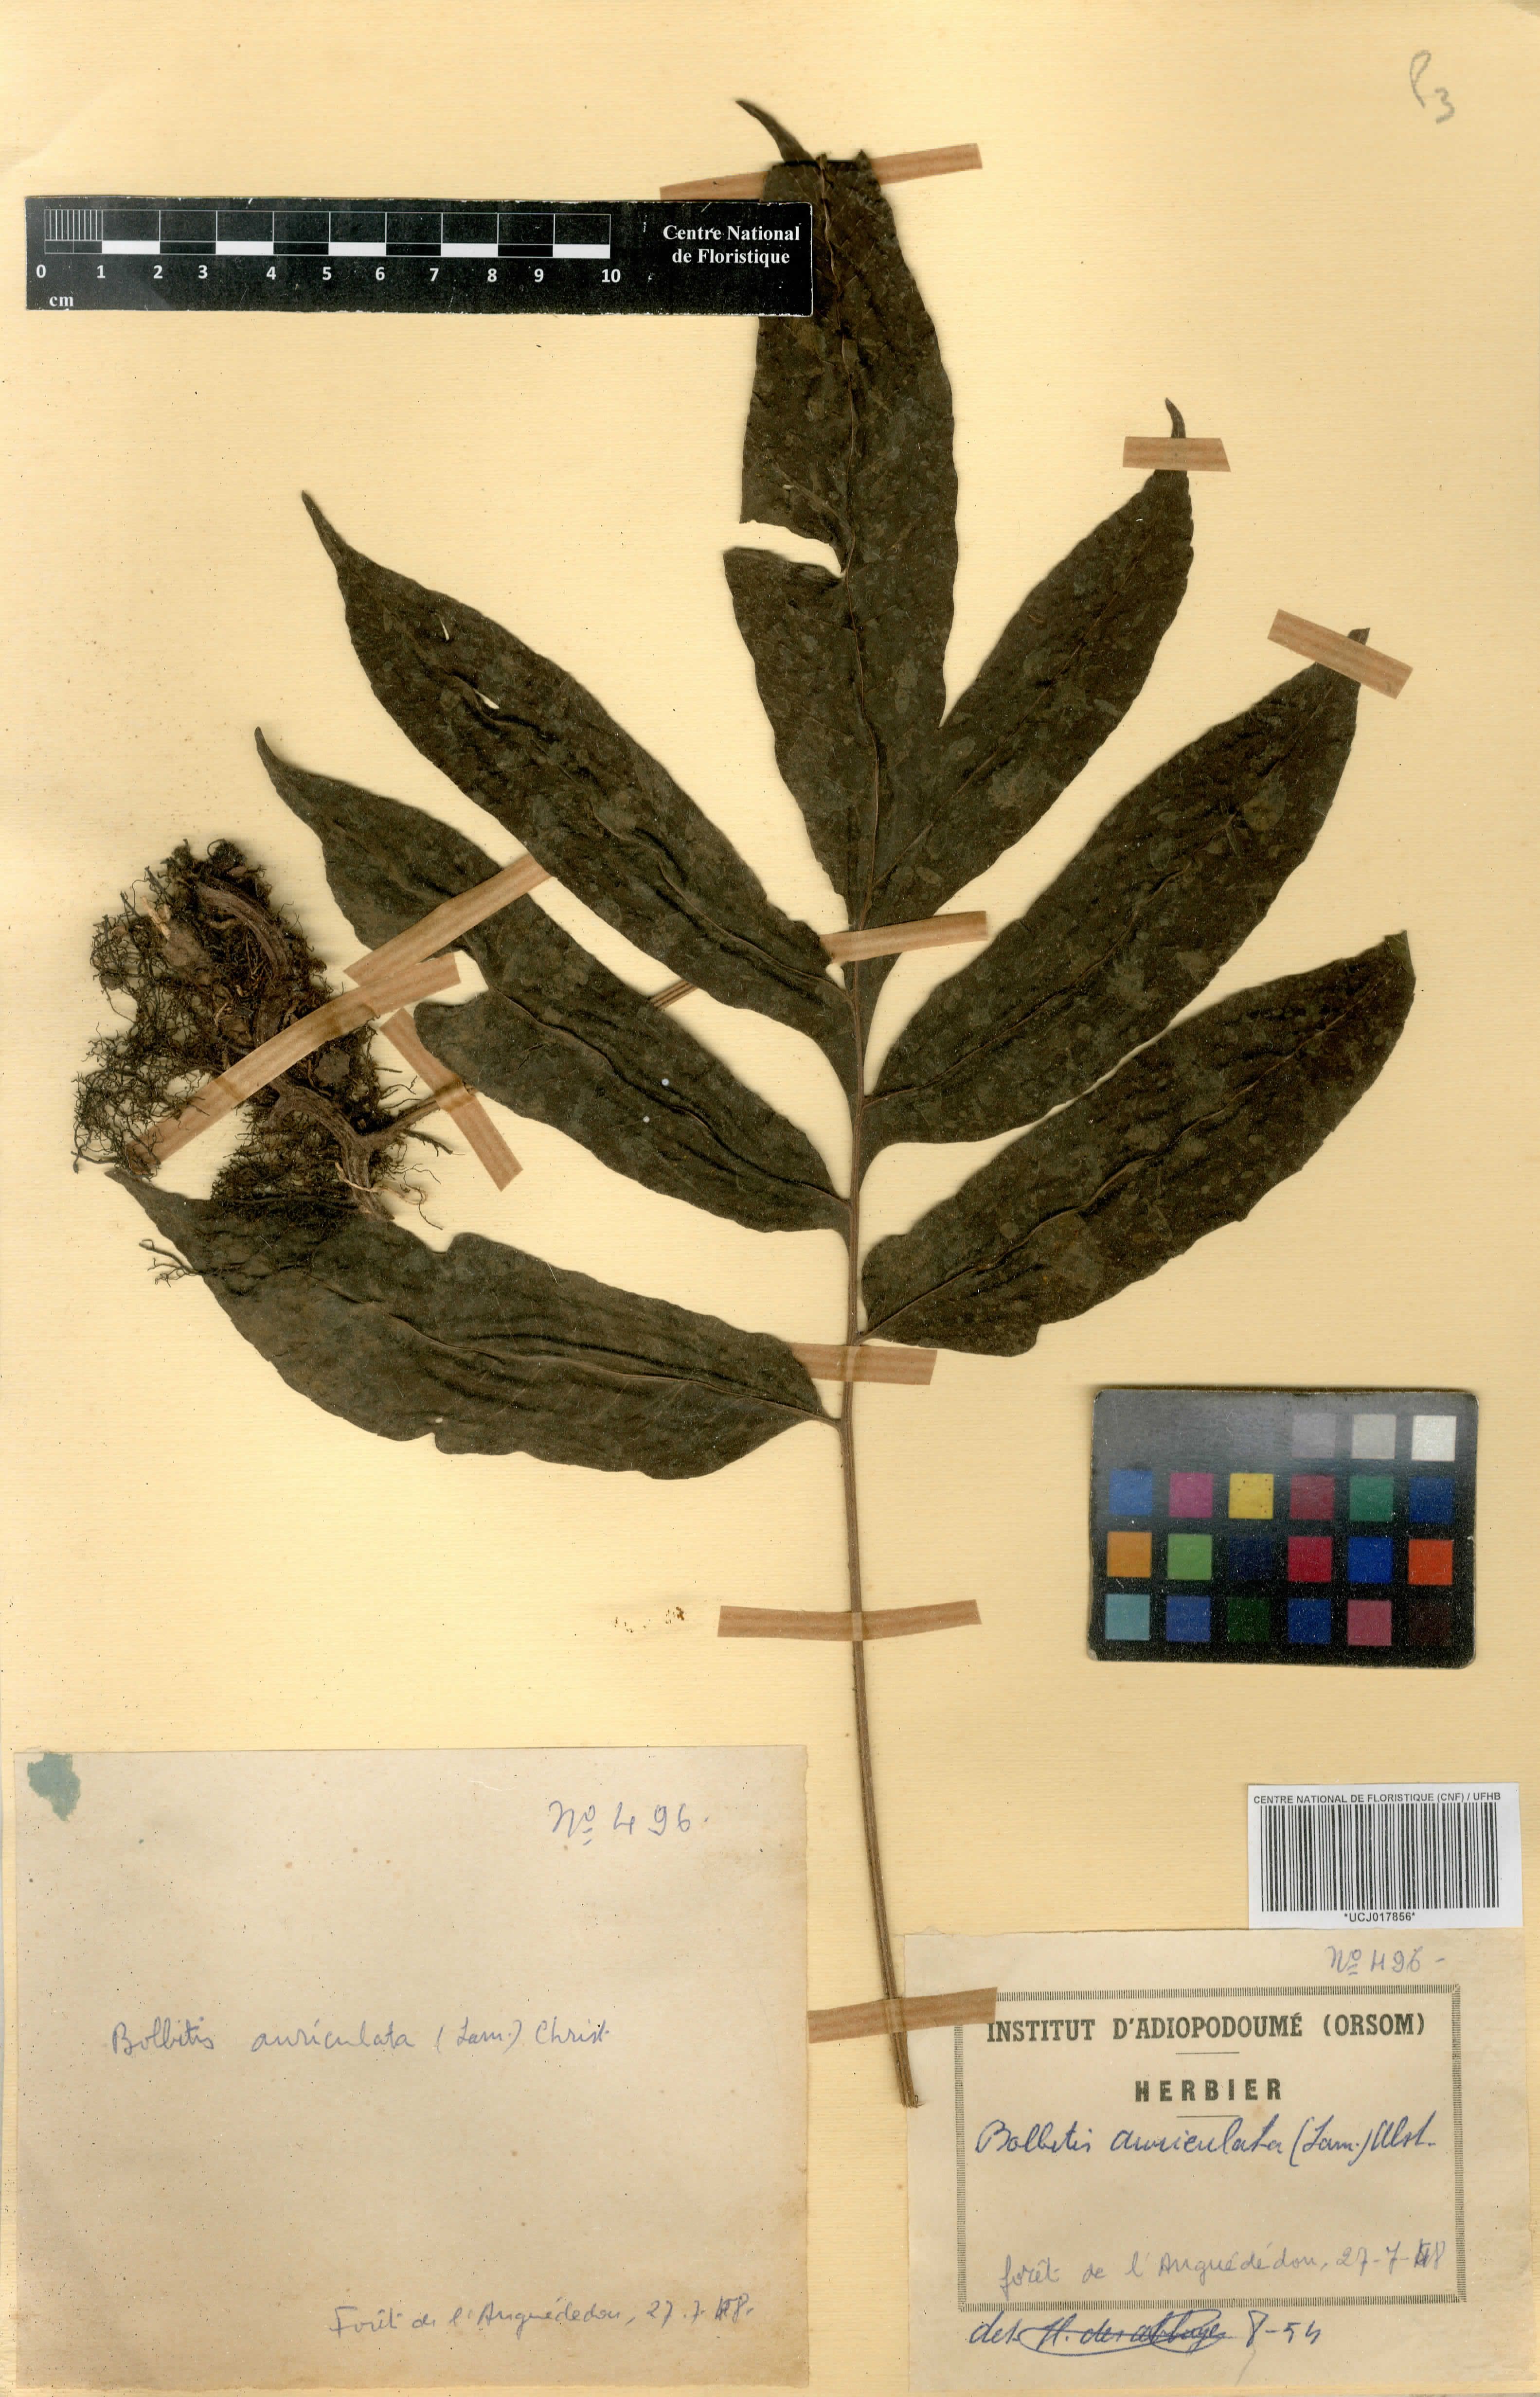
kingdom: Plantae
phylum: Tracheophyta
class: Polypodiopsida
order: Polypodiales
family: Dryopteridaceae
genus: Bolbitis
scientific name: Bolbitis auriculata
